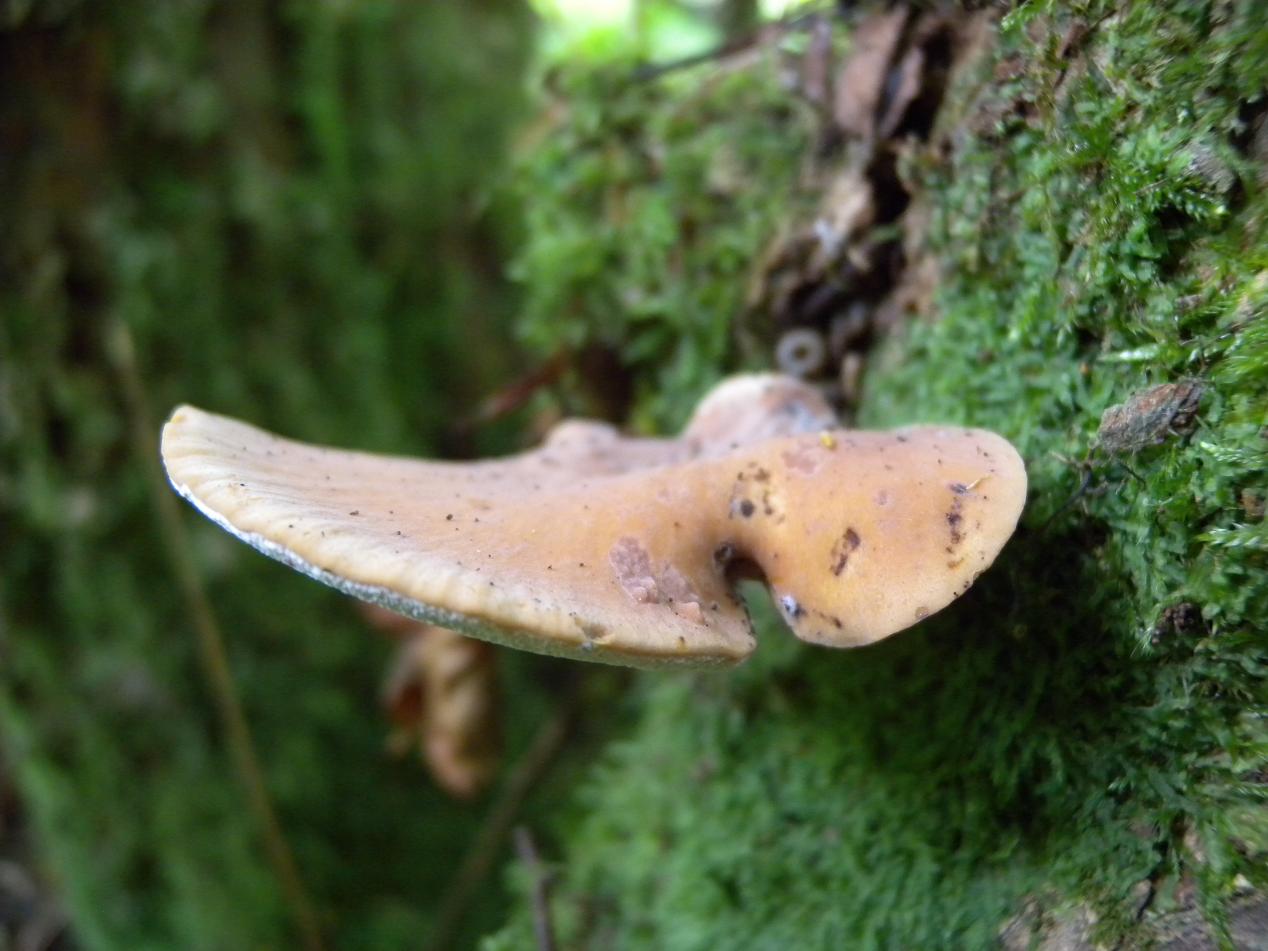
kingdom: Fungi
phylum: Basidiomycota
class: Agaricomycetes
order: Polyporales
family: Polyporaceae
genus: Cerioporus
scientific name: Cerioporus varius
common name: foranderlig stilkporesvamp
